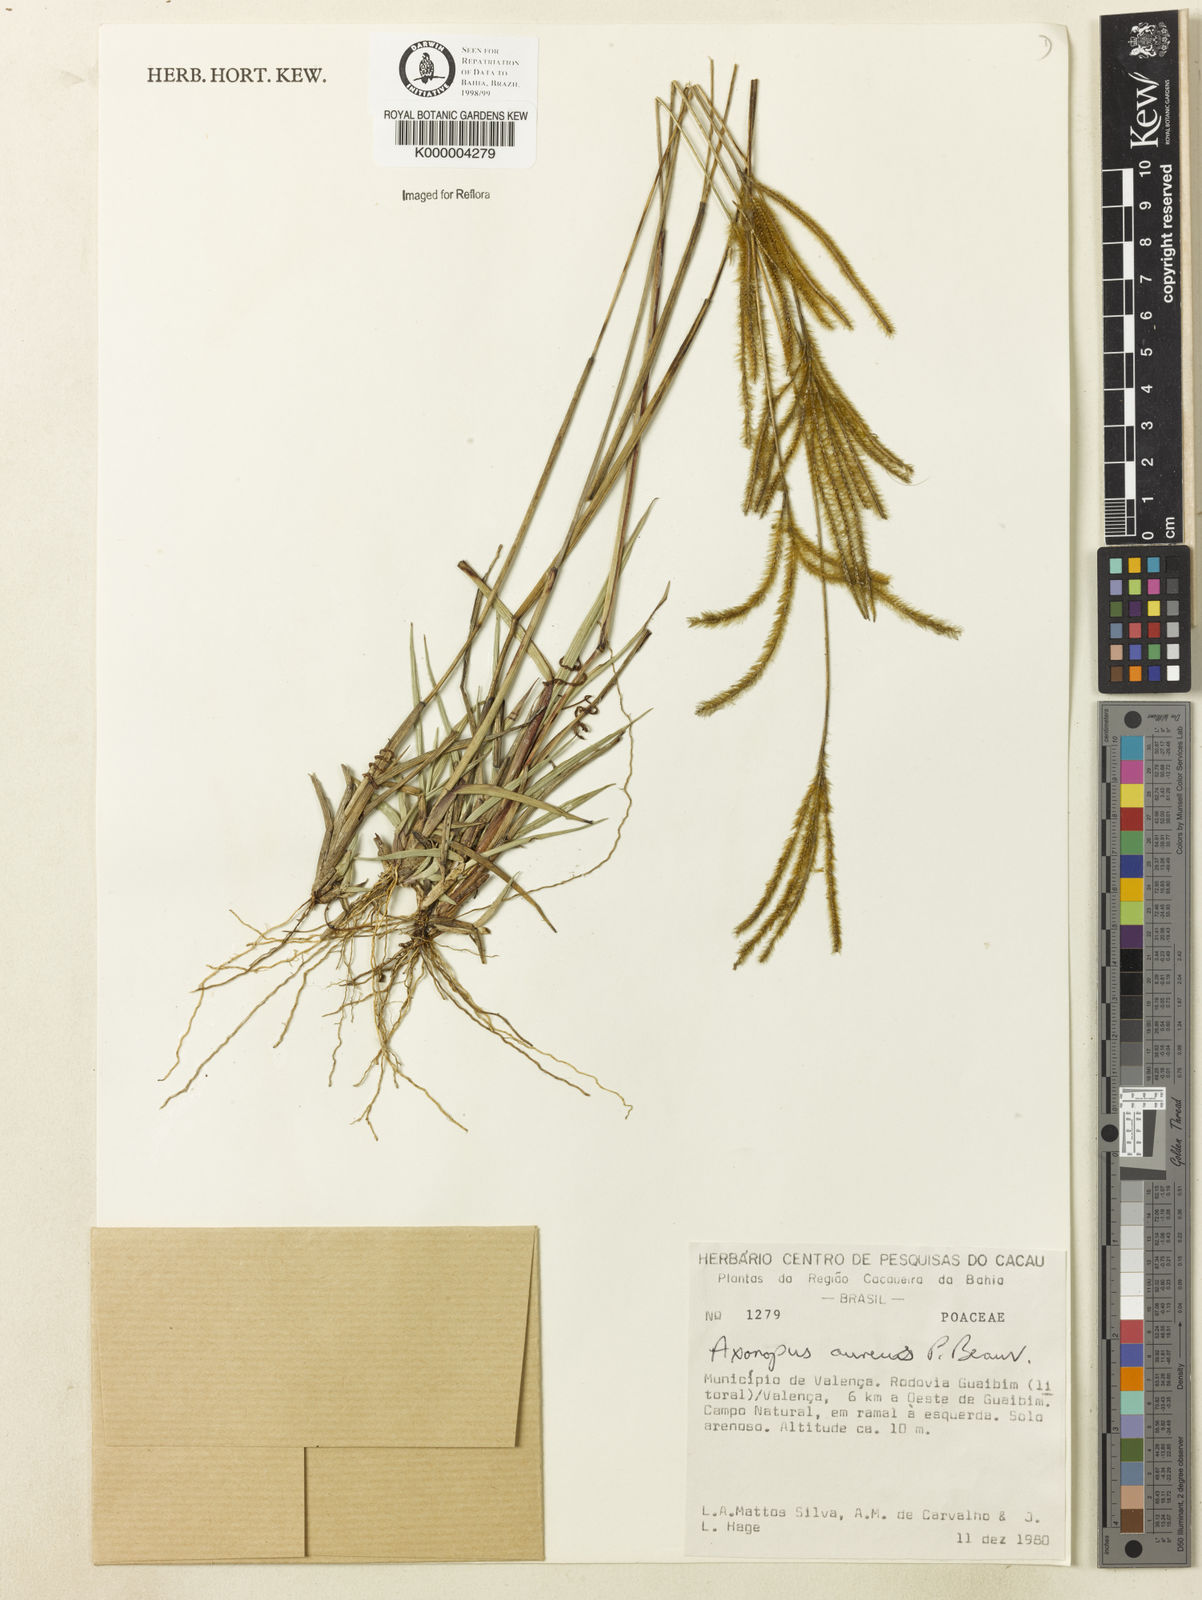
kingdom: Plantae
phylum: Tracheophyta
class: Liliopsida
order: Poales
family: Poaceae
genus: Axonopus
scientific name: Axonopus aureus
